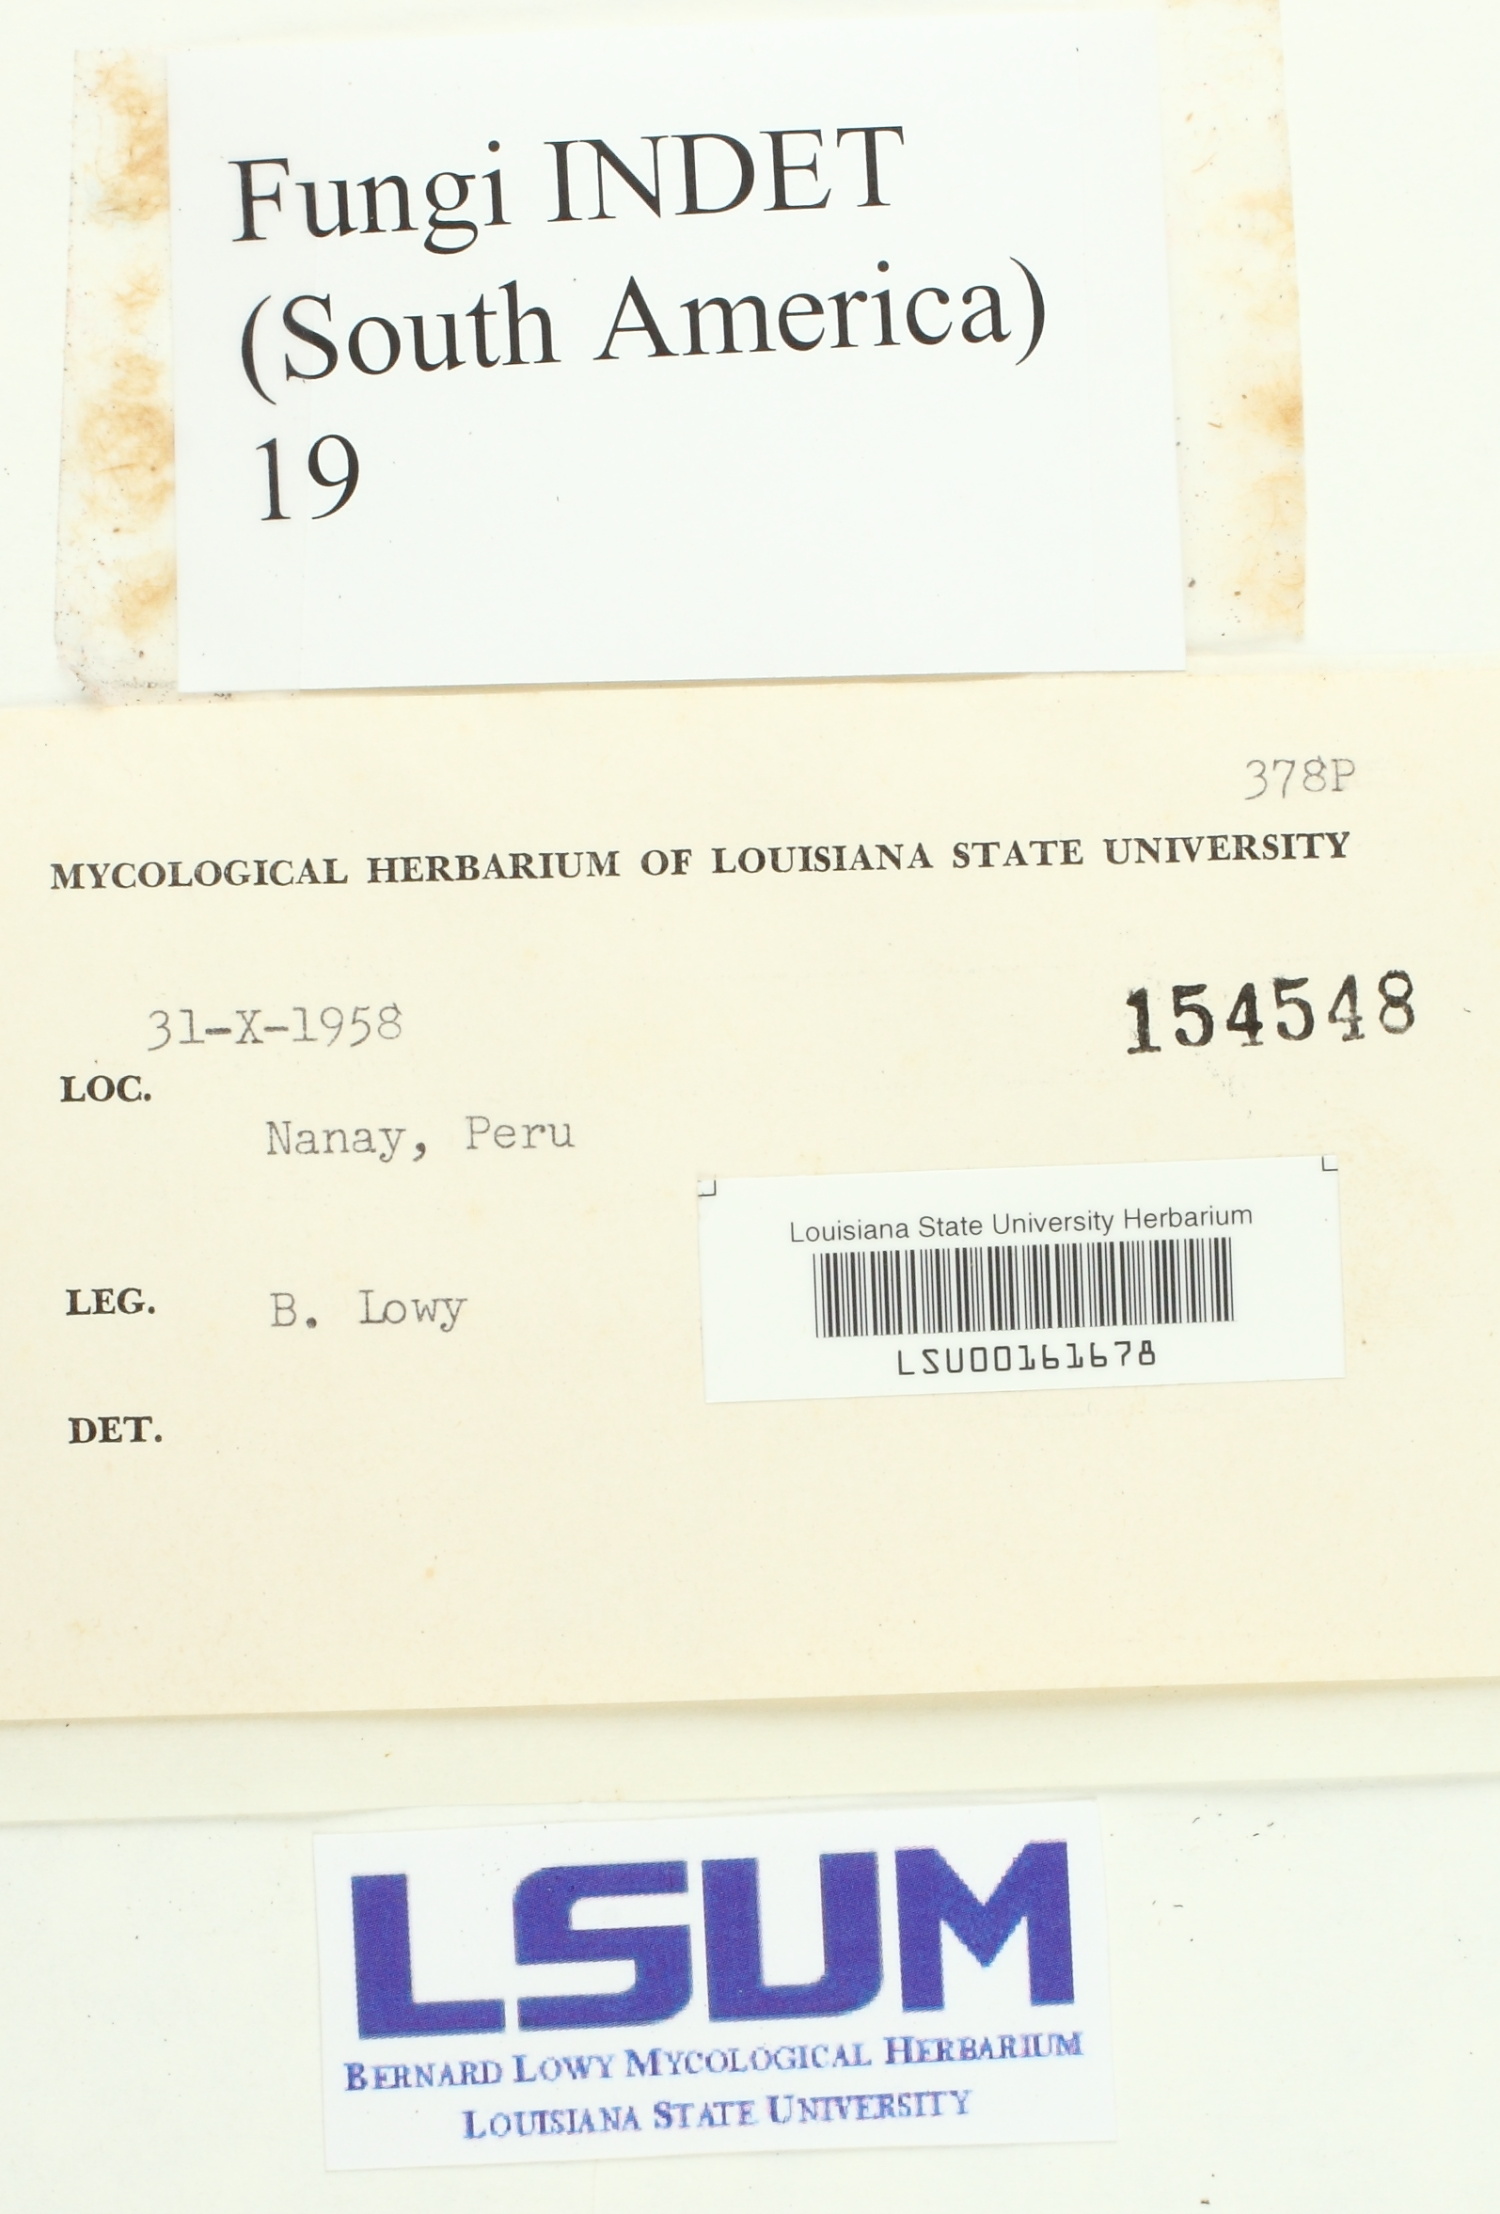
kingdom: Fungi
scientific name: Fungi
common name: Fungi
